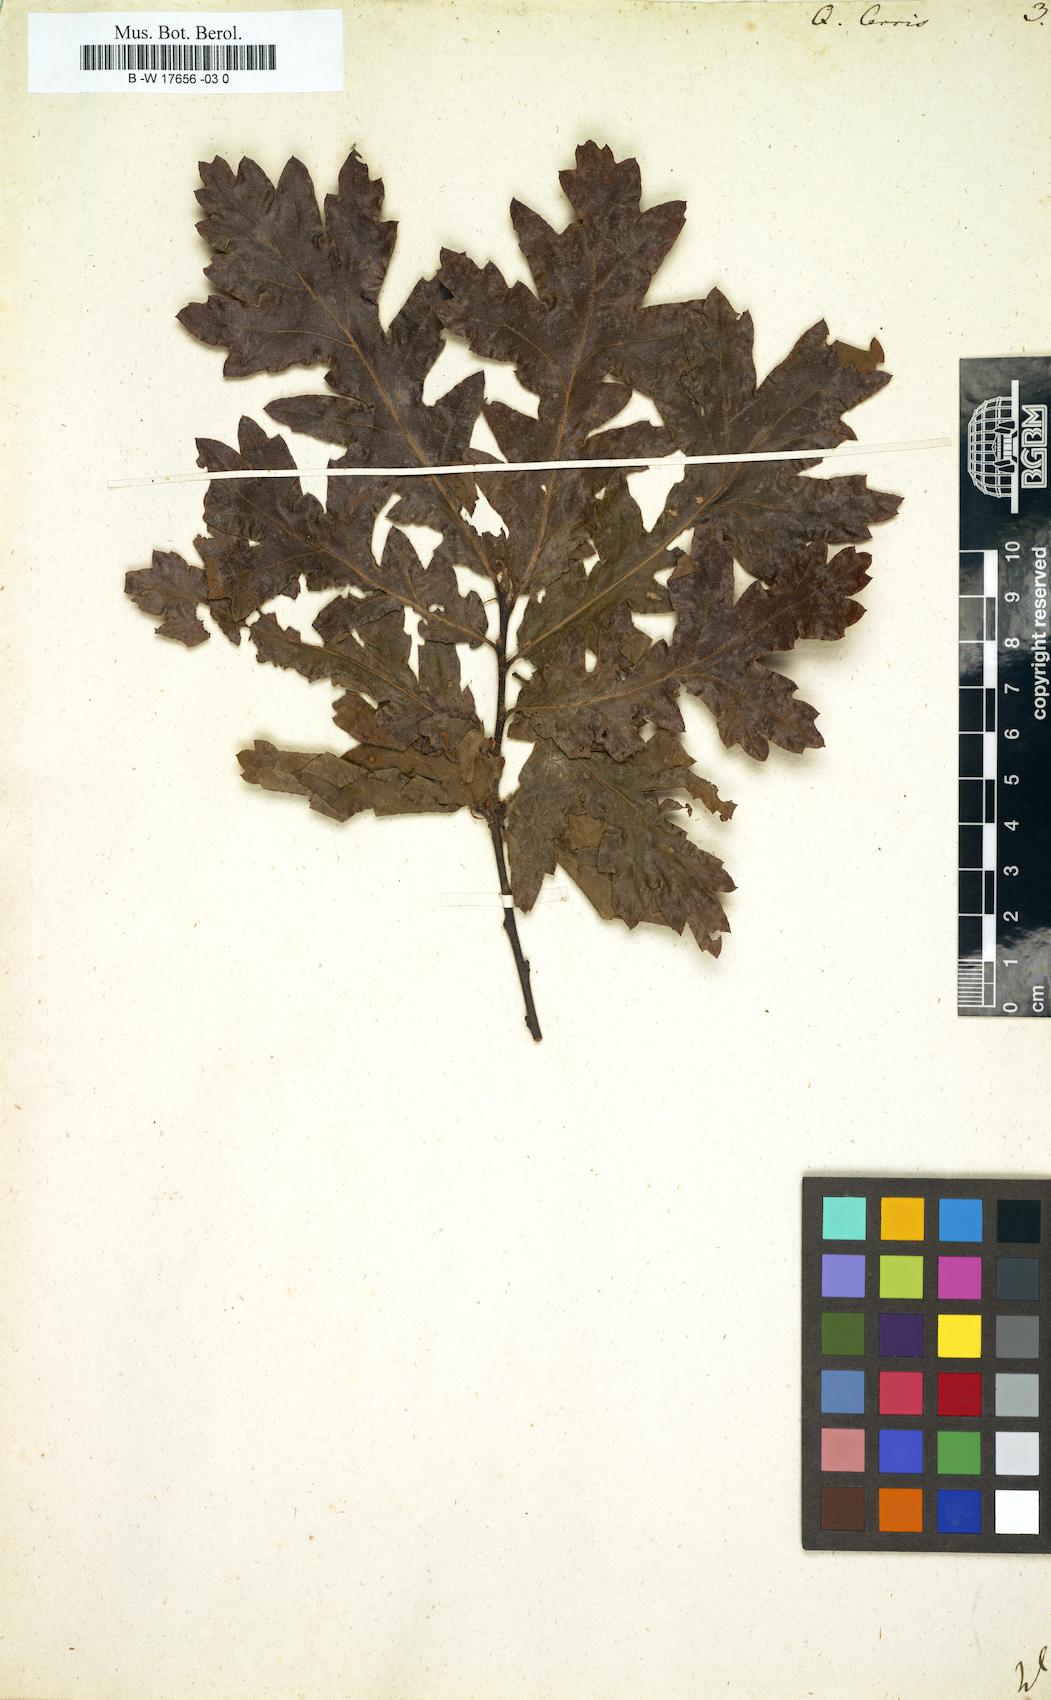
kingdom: Plantae
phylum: Tracheophyta
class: Magnoliopsida
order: Fagales
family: Fagaceae
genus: Quercus
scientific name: Quercus cerris
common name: Turkey oak
